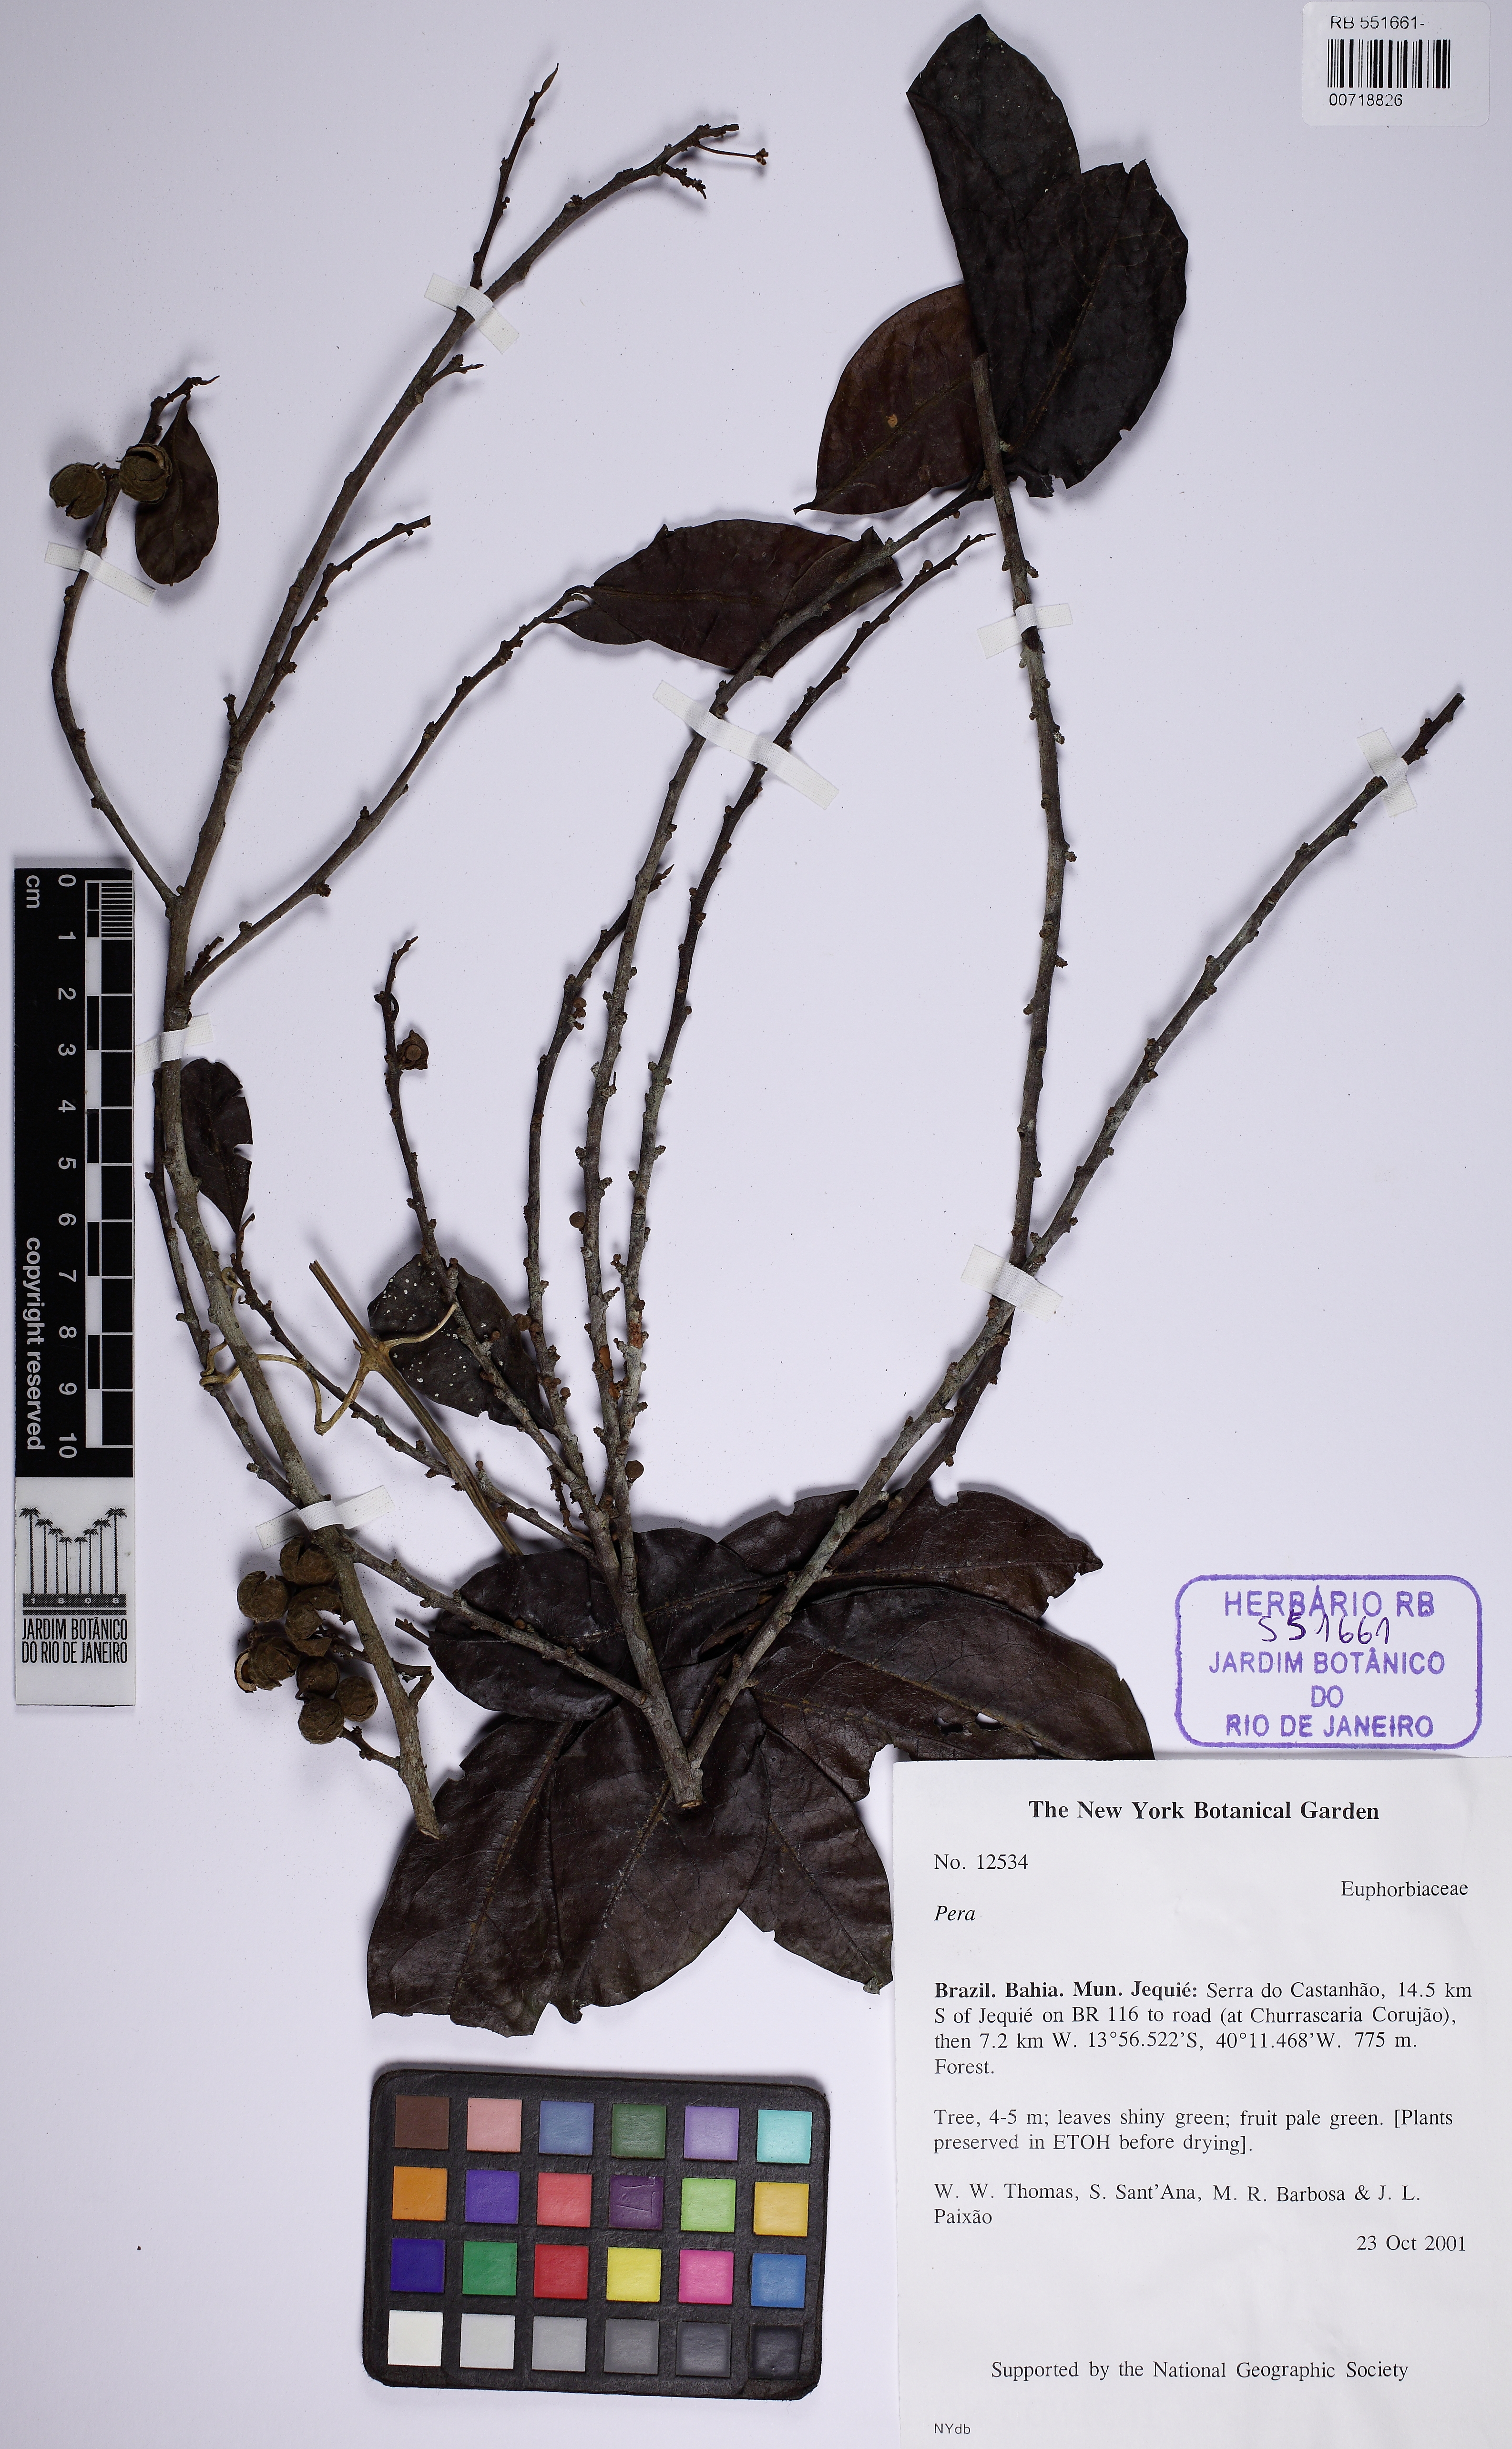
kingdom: Plantae
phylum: Tracheophyta
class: Magnoliopsida
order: Malpighiales
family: Peraceae
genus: Pera
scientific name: Pera anisotricha
